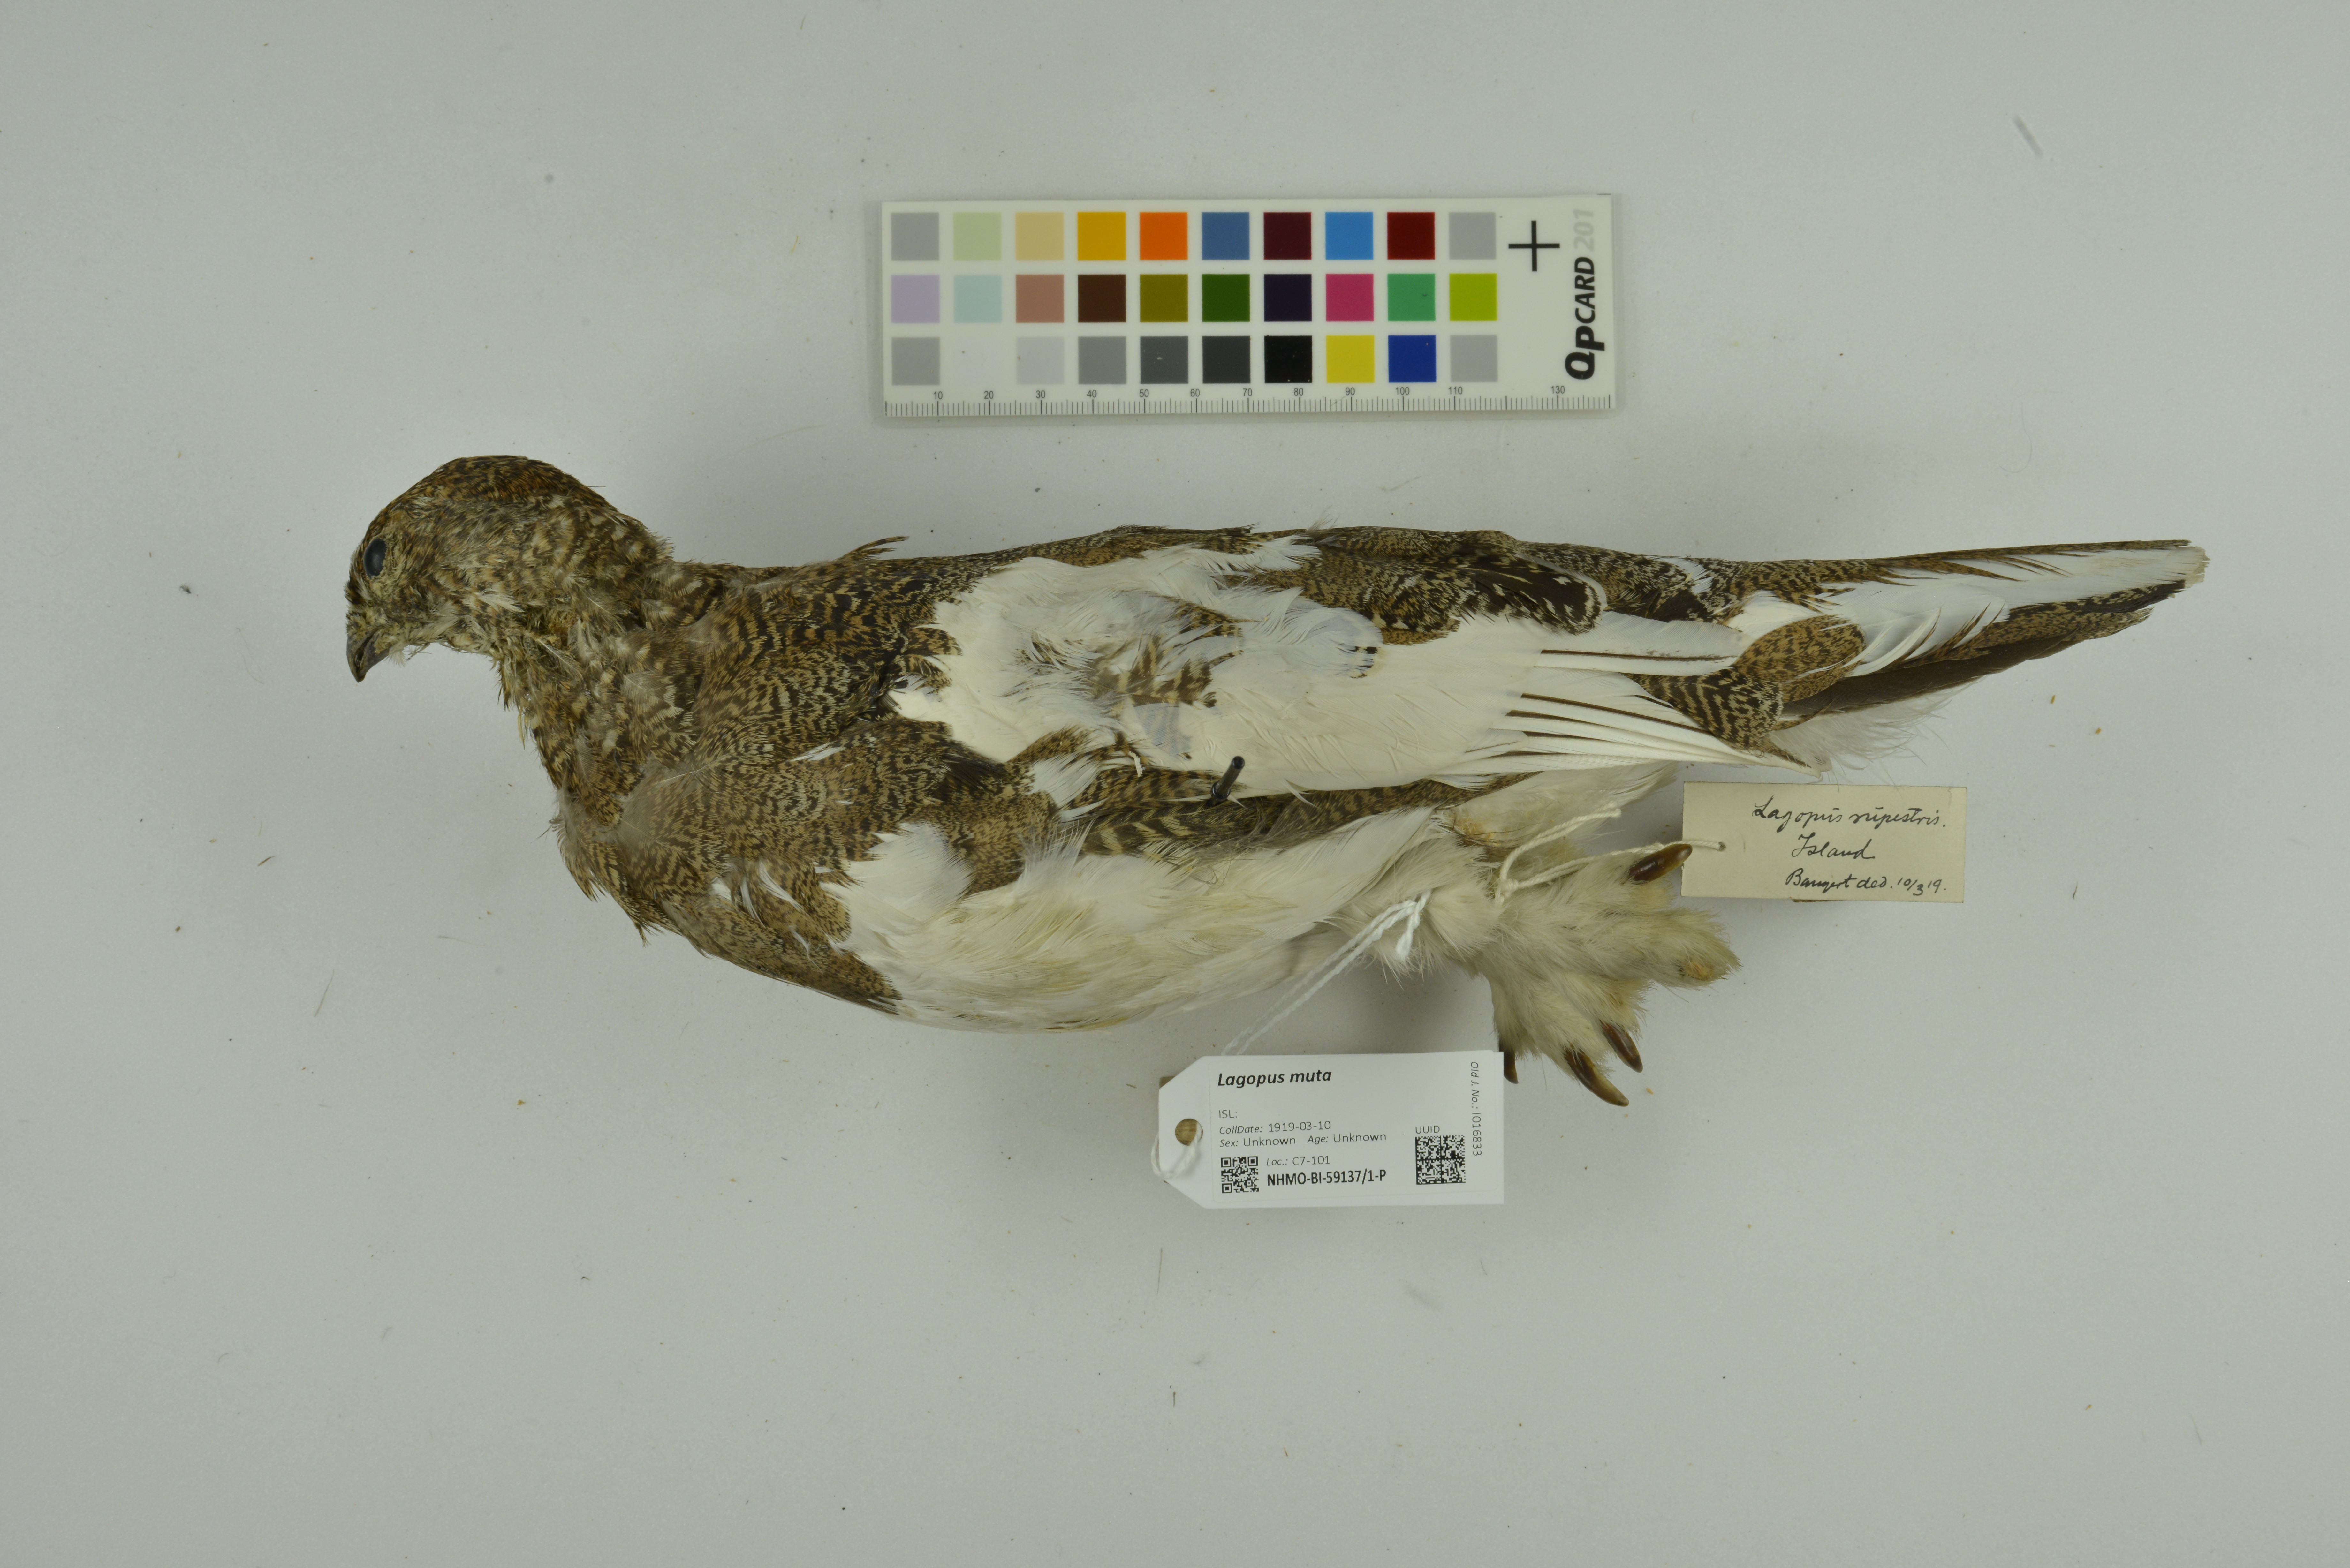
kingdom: Animalia
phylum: Chordata
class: Aves
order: Galliformes
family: Phasianidae
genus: Lagopus
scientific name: Lagopus muta
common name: Rock ptarmigan
